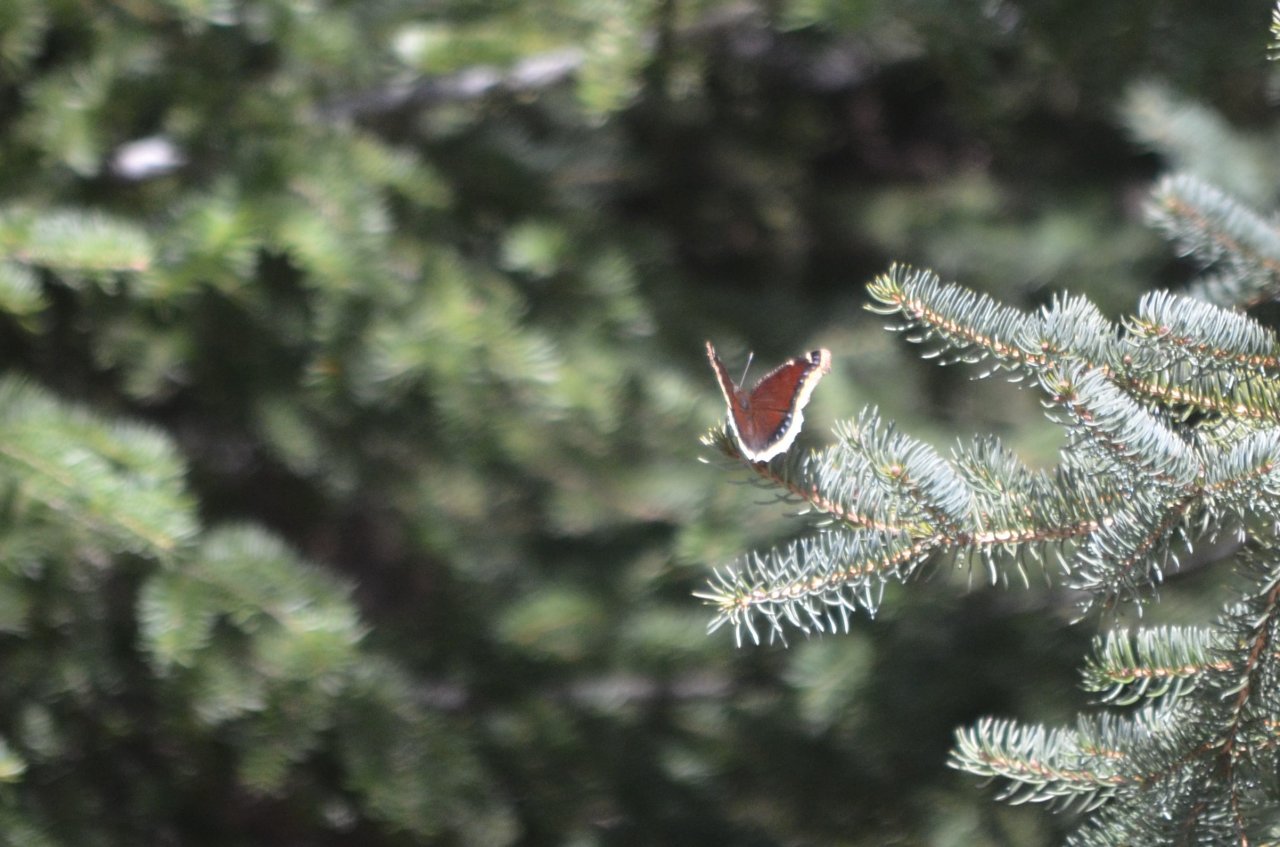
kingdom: Animalia
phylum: Arthropoda
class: Insecta
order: Lepidoptera
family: Nymphalidae
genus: Nymphalis
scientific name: Nymphalis antiopa
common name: Mourning Cloak
